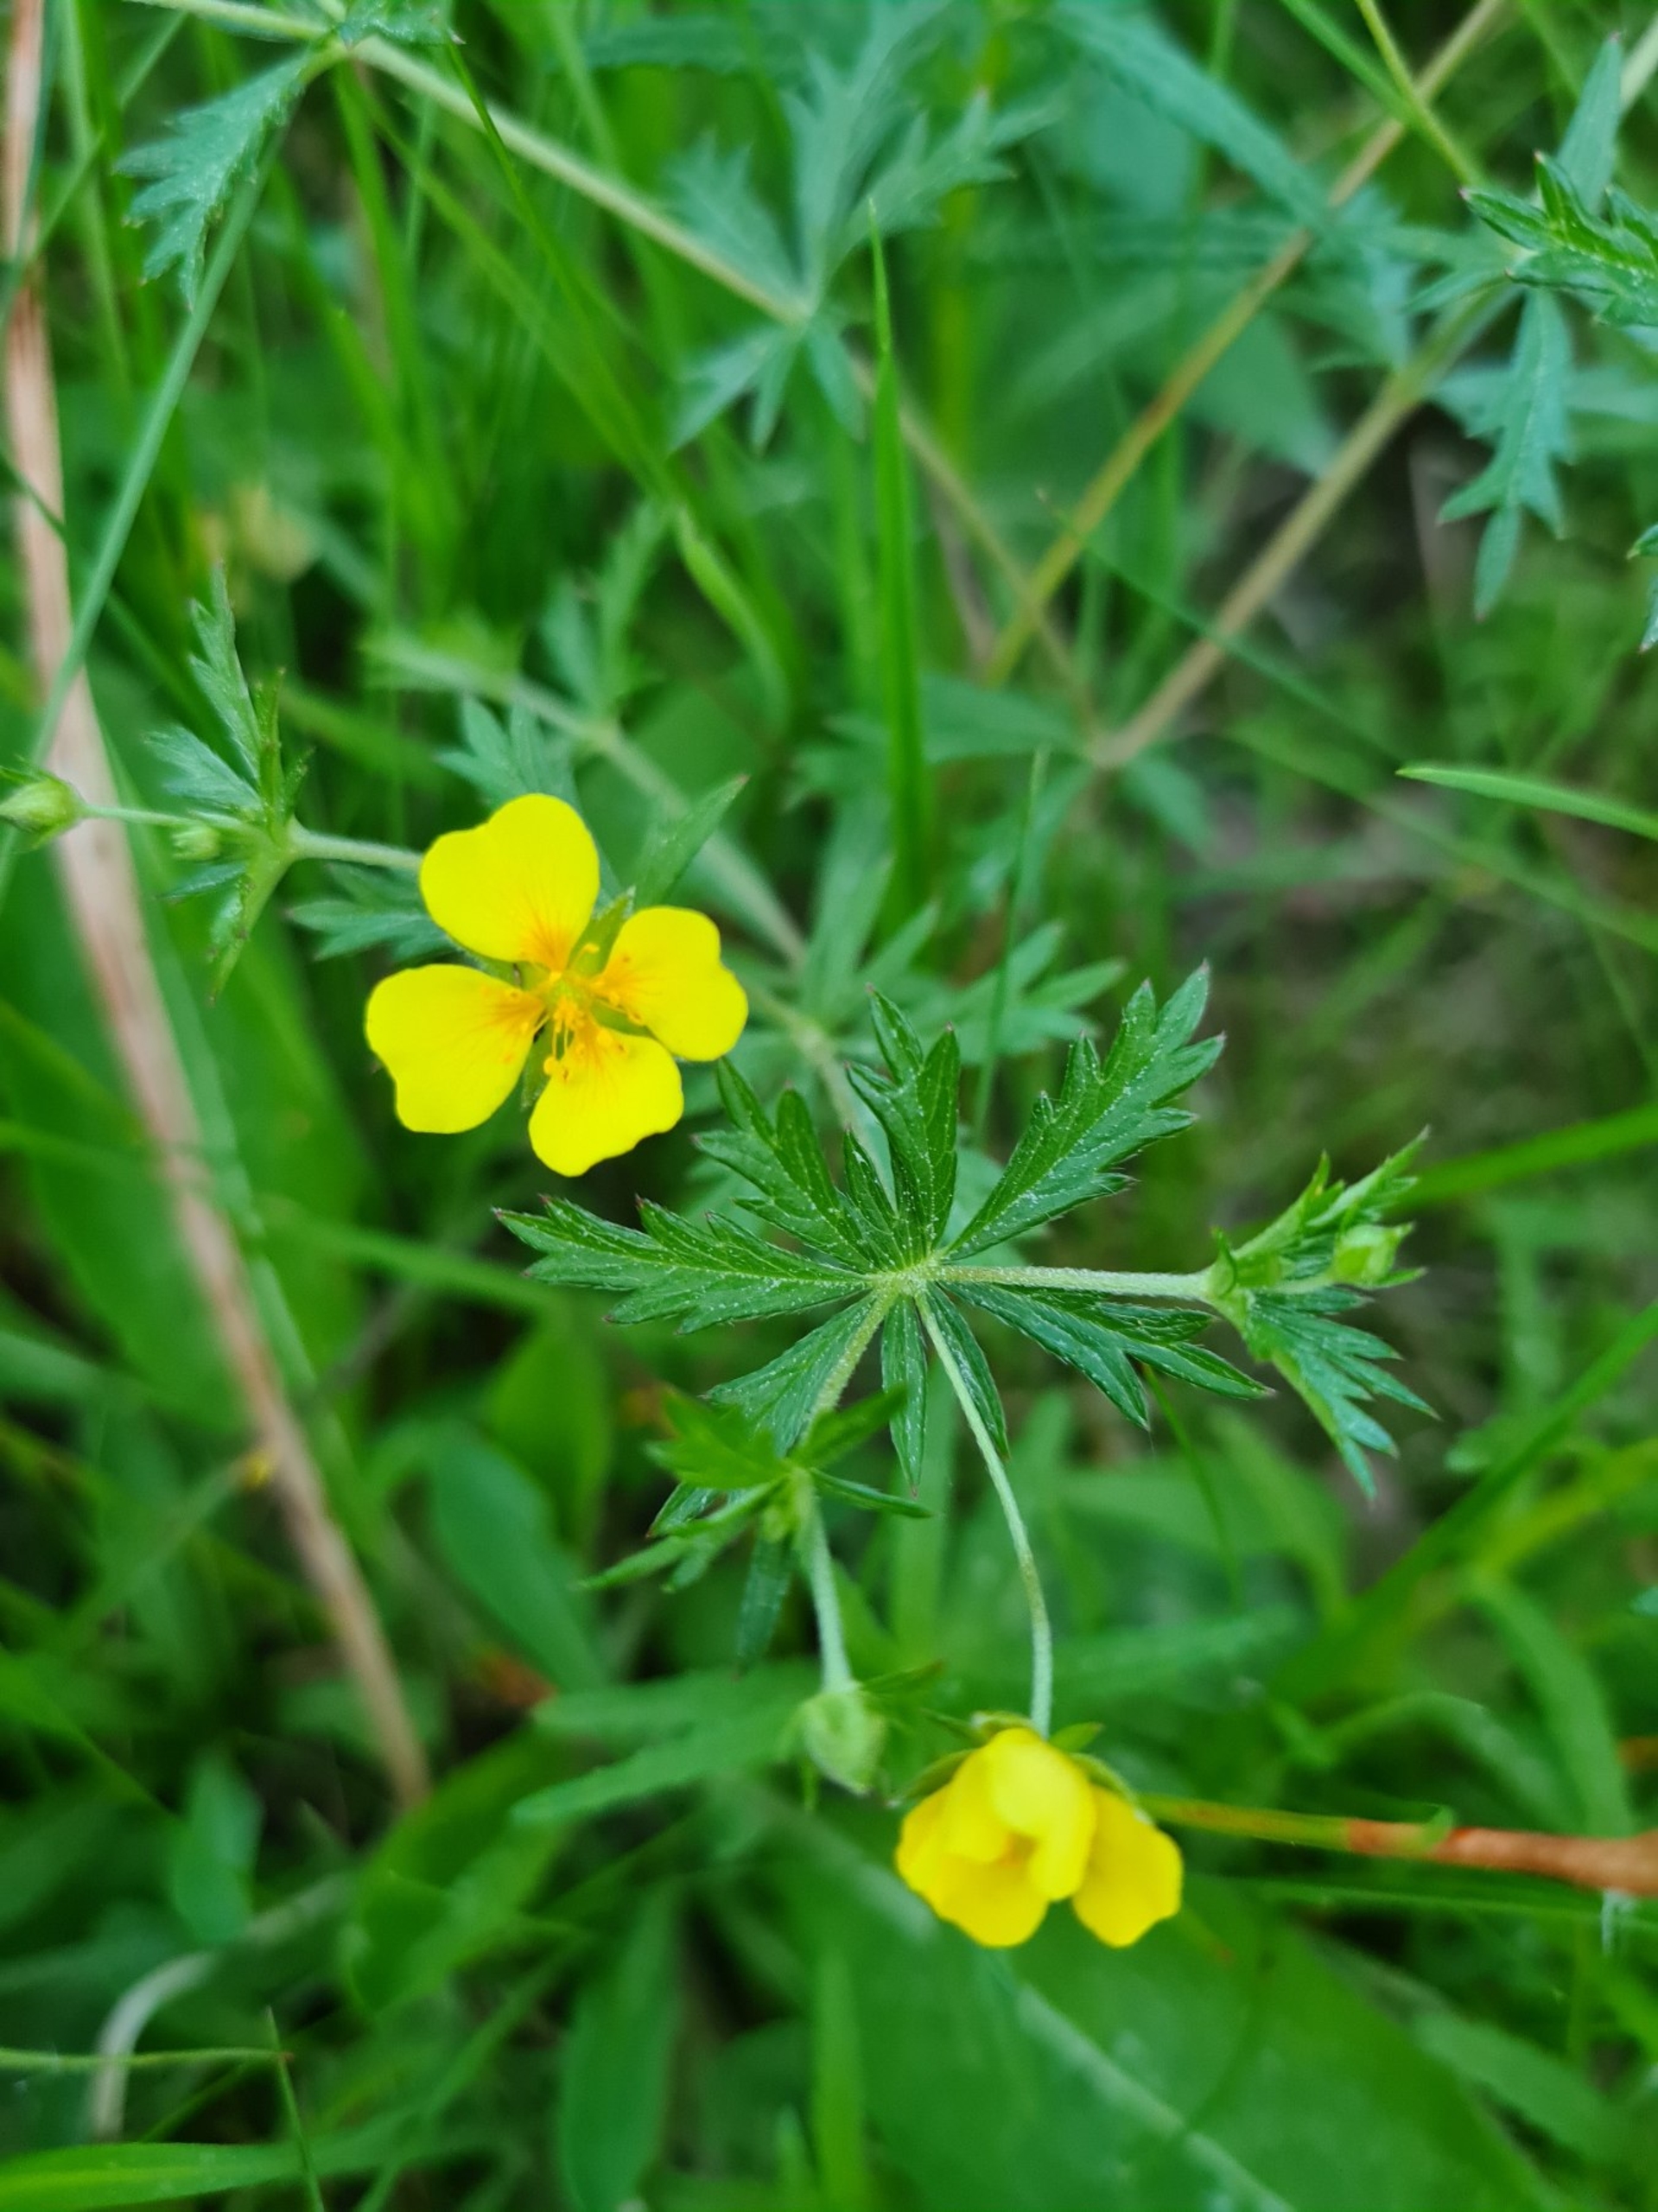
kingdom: Plantae
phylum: Tracheophyta
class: Magnoliopsida
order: Rosales
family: Rosaceae
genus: Potentilla
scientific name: Potentilla erecta
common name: Tormentil
